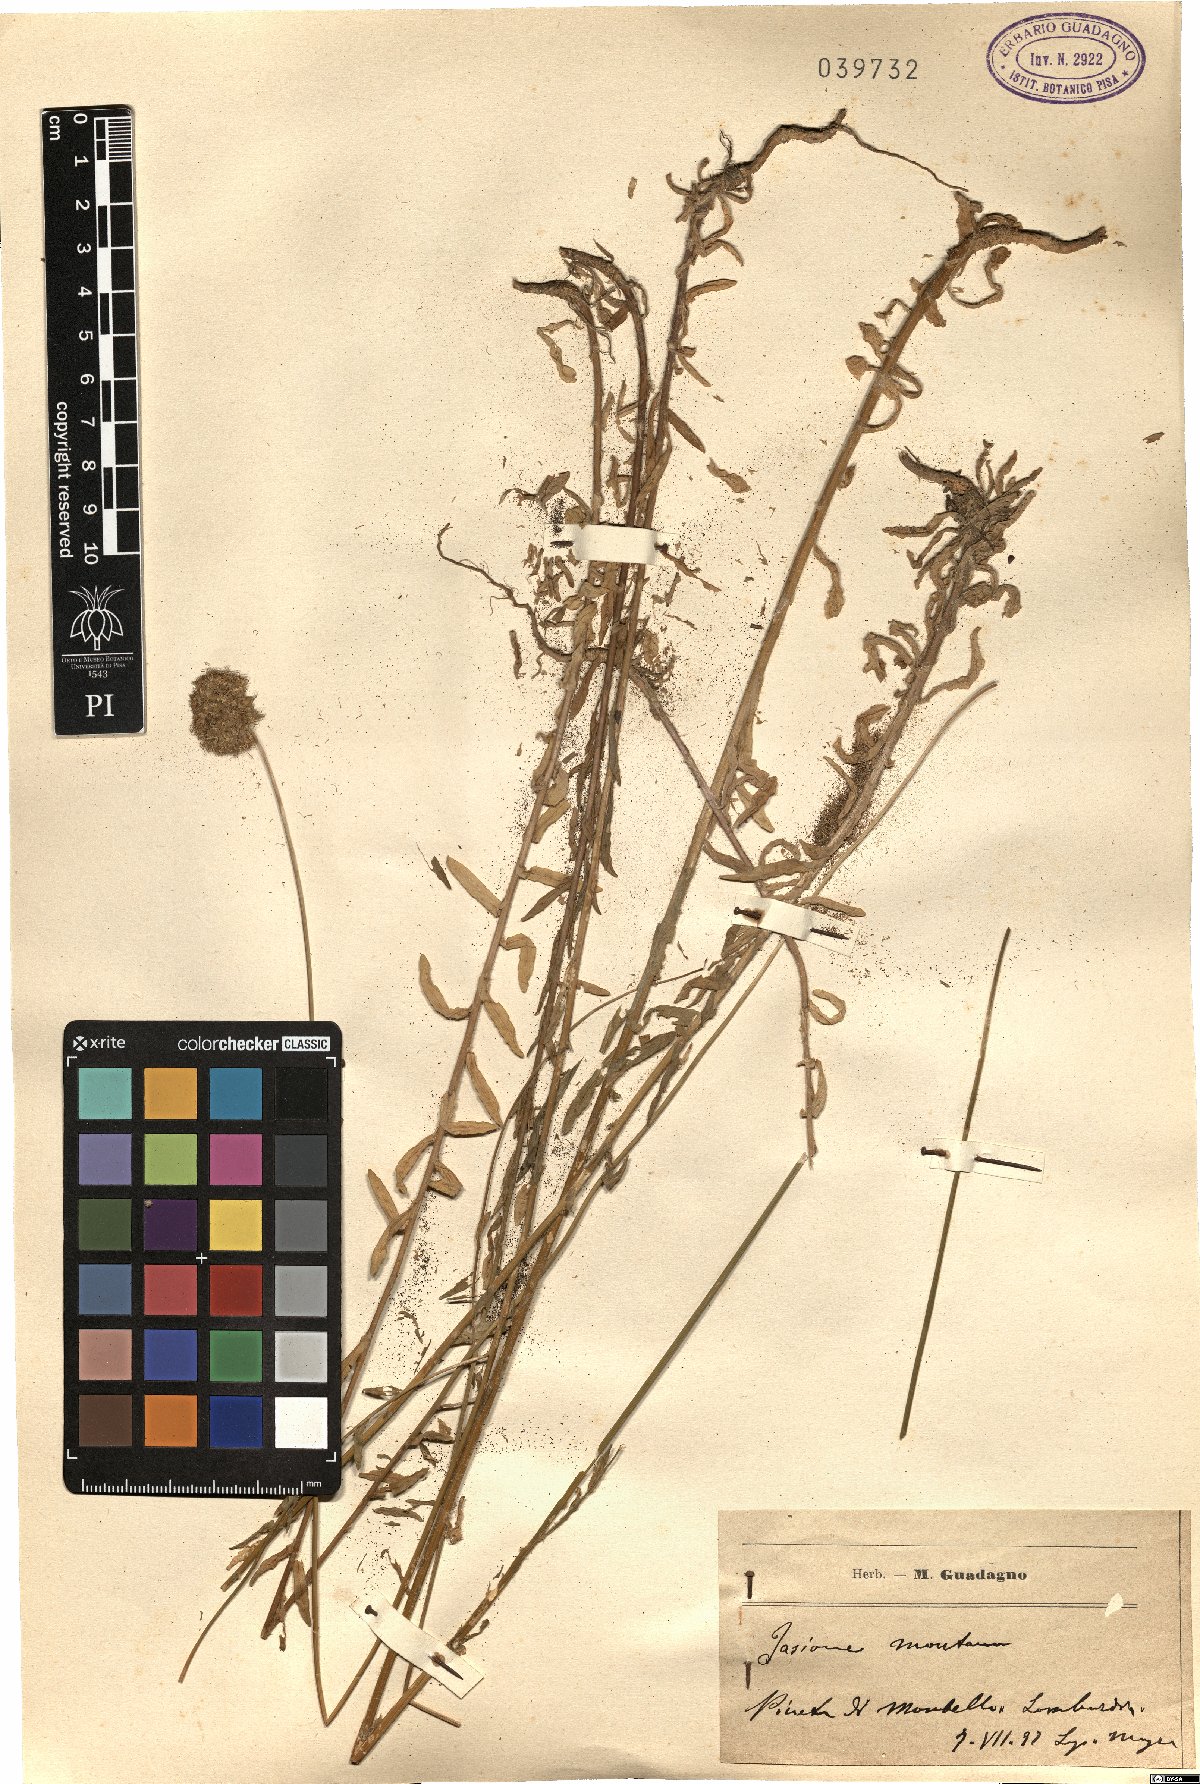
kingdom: Plantae
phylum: Tracheophyta
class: Magnoliopsida
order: Asterales
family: Campanulaceae
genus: Jasione
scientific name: Jasione montana
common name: Sheep's-bit
